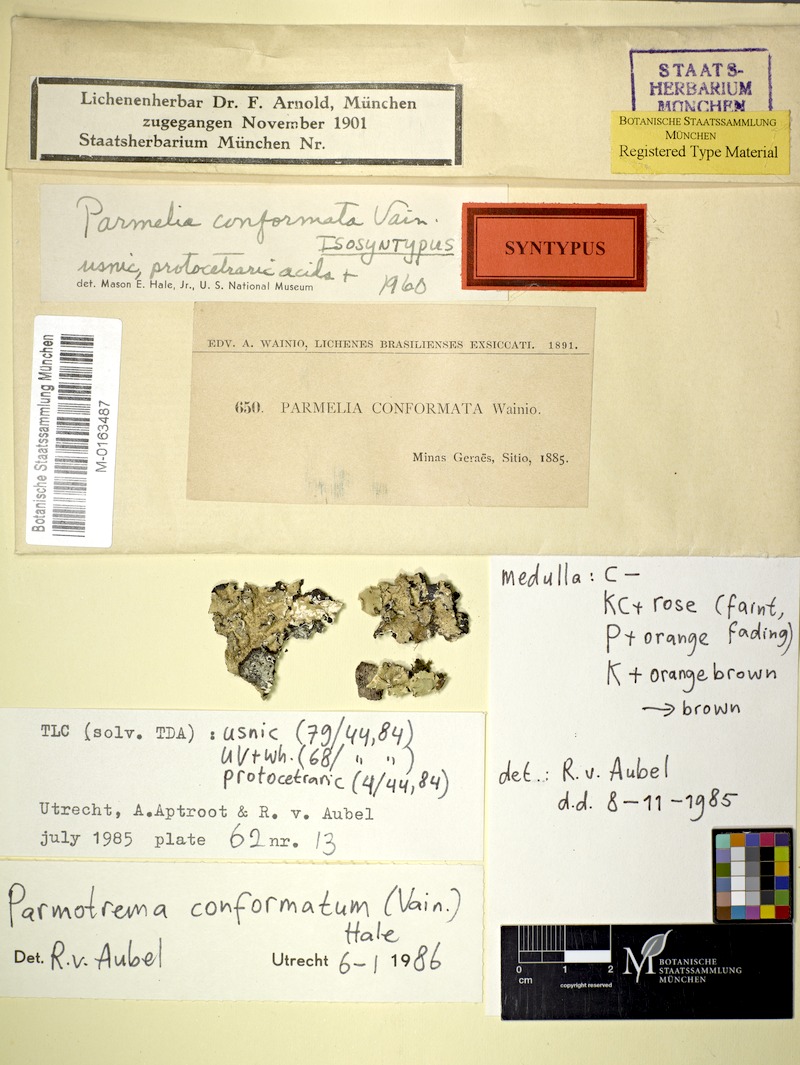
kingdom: Fungi
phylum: Ascomycota
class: Lecanoromycetes
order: Lecanorales
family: Parmeliaceae
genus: Parmotrema
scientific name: Parmotrema conformatum
